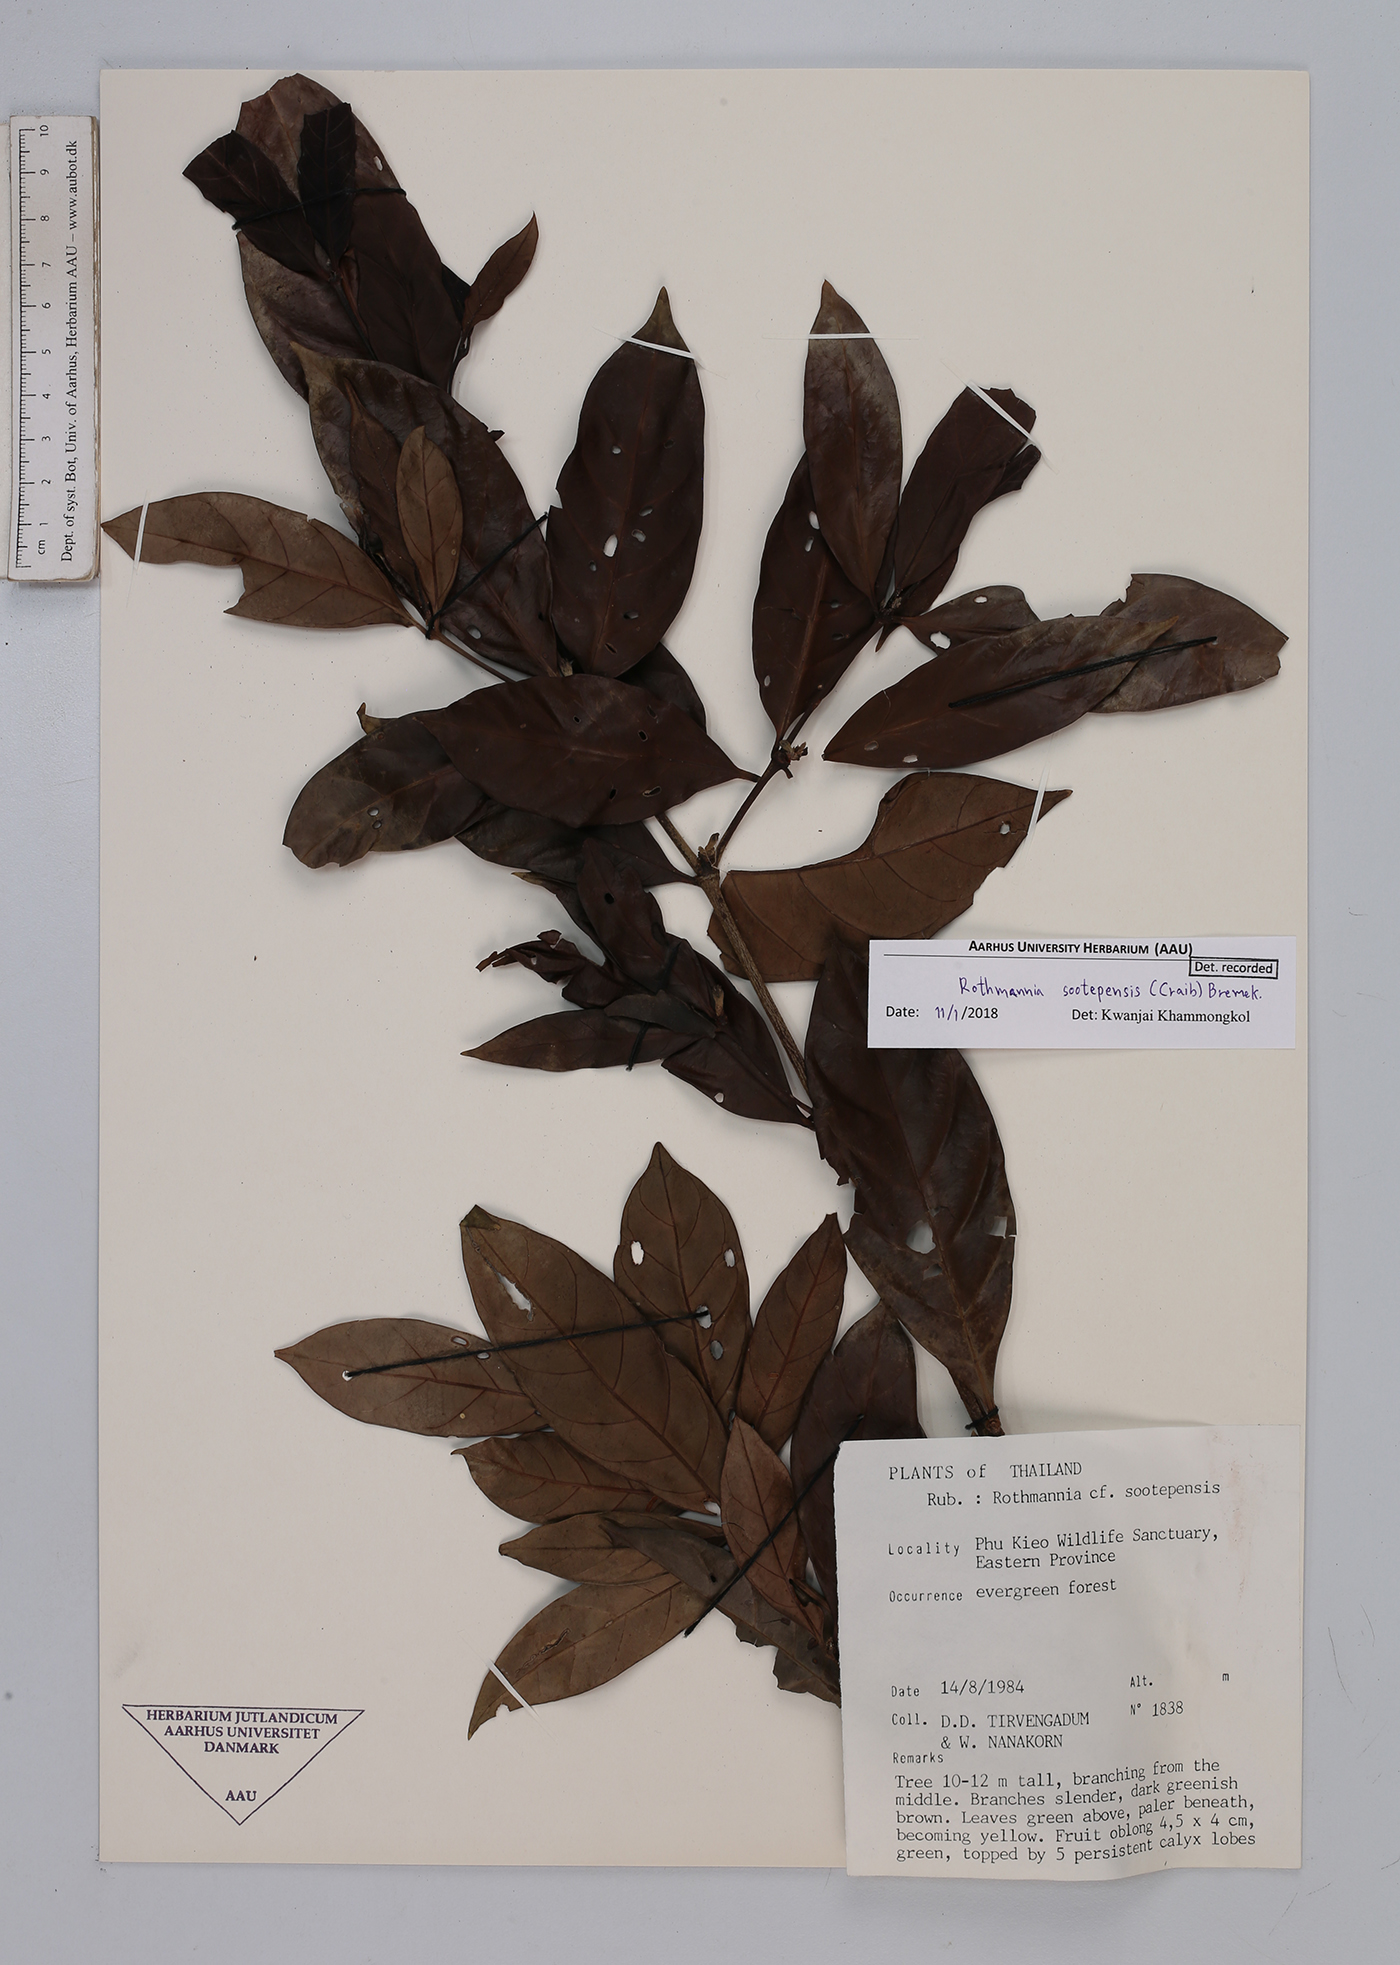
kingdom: Plantae
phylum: Tracheophyta
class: Magnoliopsida
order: Gentianales
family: Rubiaceae
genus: Ridsdalea
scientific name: Ridsdalea sootepensis
